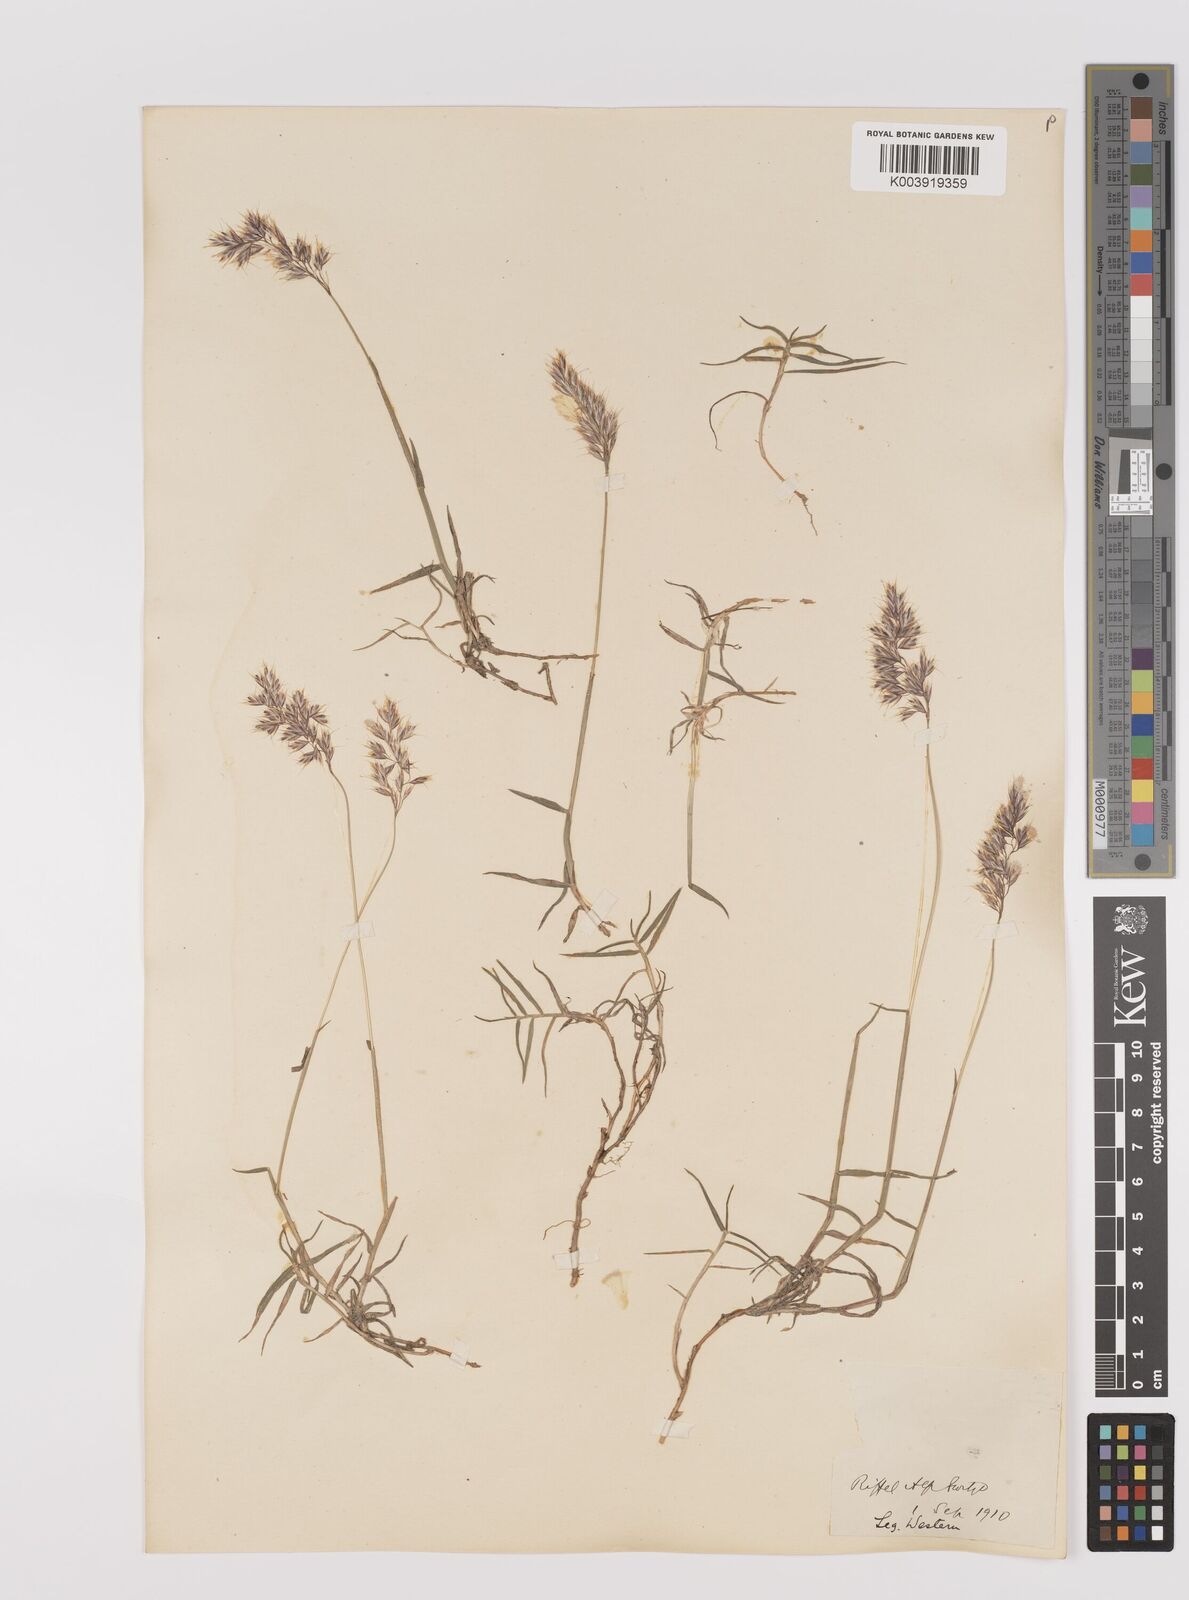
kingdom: Plantae
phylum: Tracheophyta
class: Liliopsida
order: Poales
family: Poaceae
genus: Acrospelion
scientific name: Acrospelion distichophyllum
